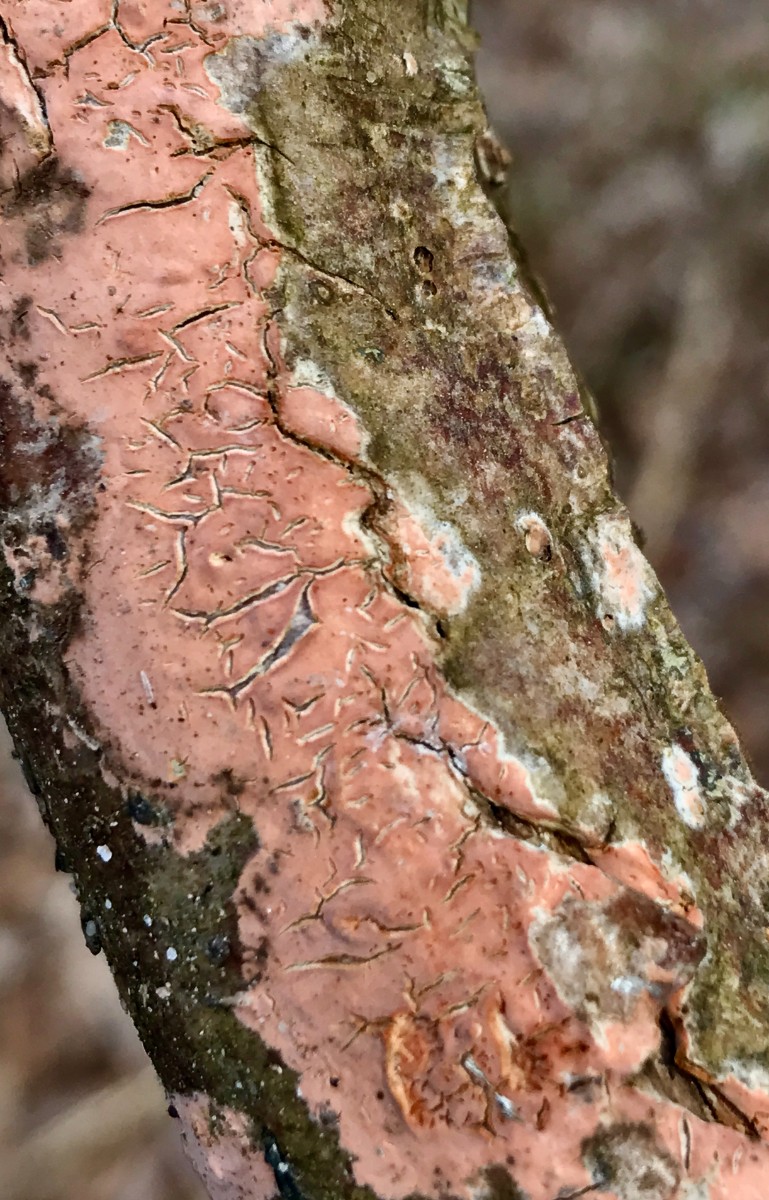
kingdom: Fungi
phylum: Basidiomycota
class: Agaricomycetes
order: Russulales
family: Peniophoraceae
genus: Peniophora
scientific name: Peniophora incarnata
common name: laksefarvet voksskind
